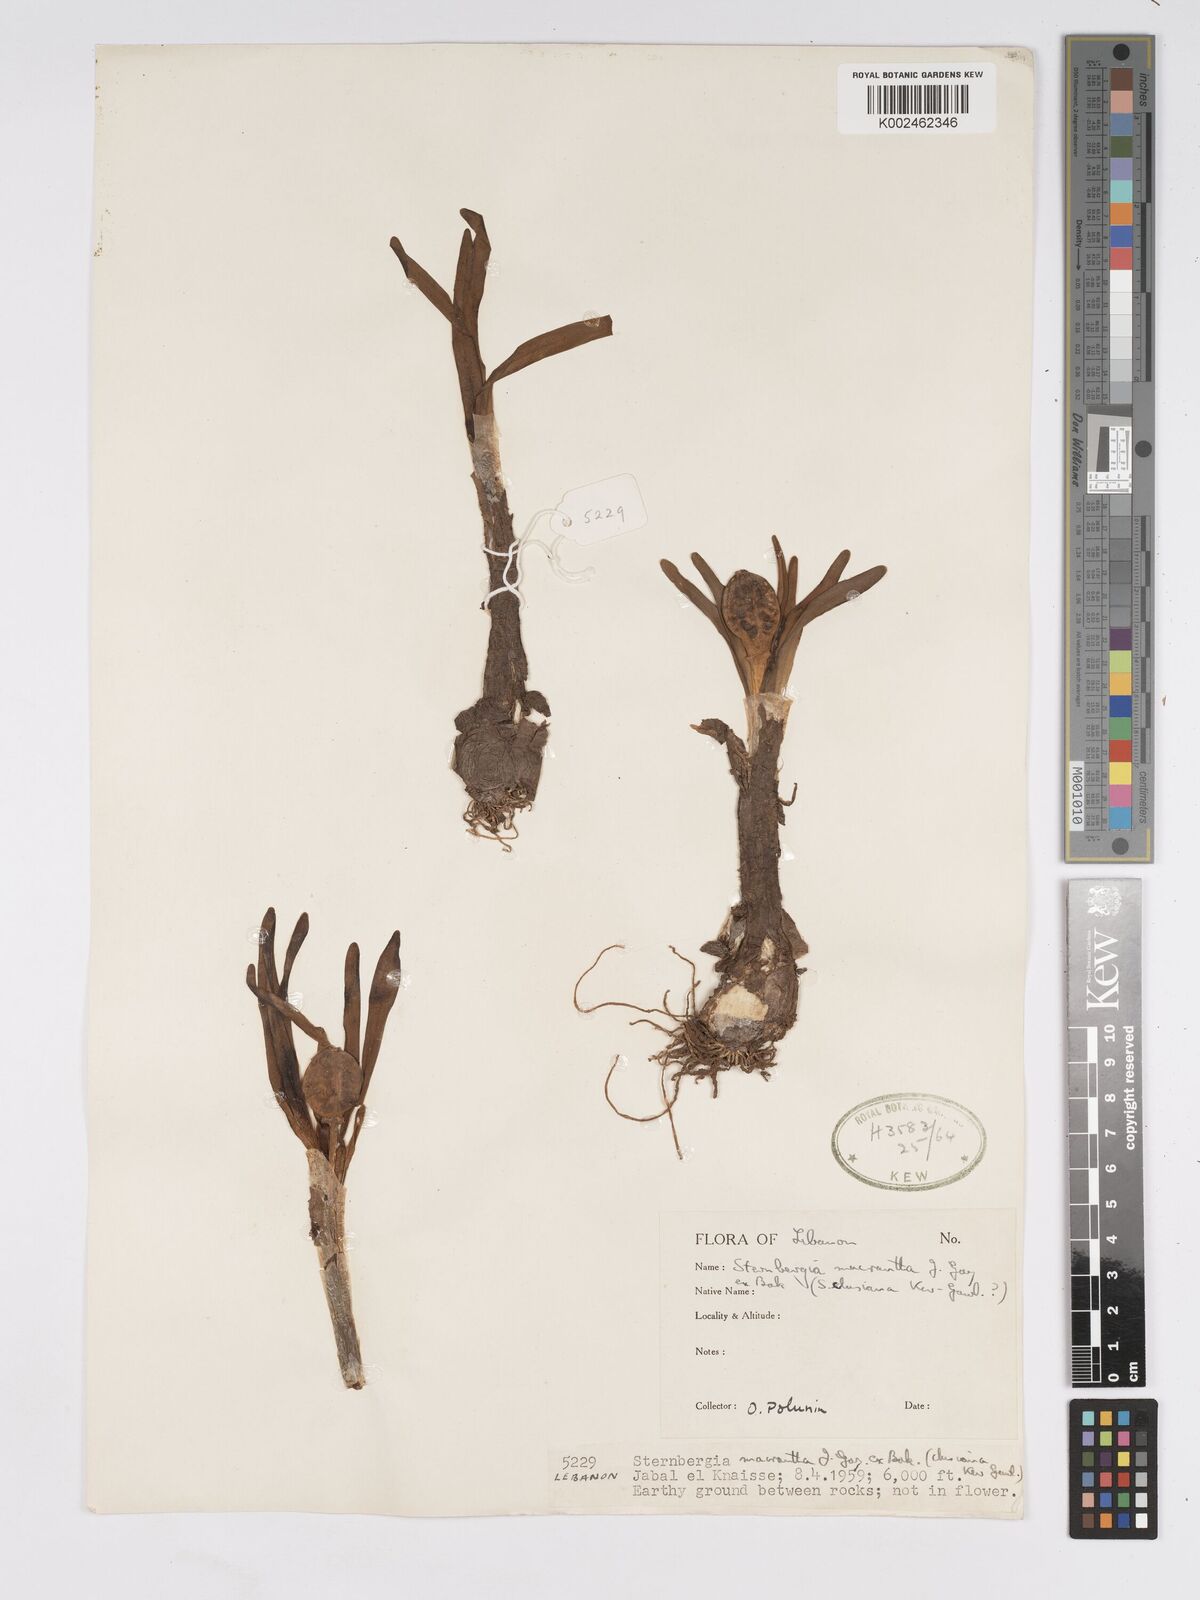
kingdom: Plantae
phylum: Tracheophyta
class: Liliopsida
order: Asparagales
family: Amaryllidaceae
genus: Sternbergia
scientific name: Sternbergia clusiana
